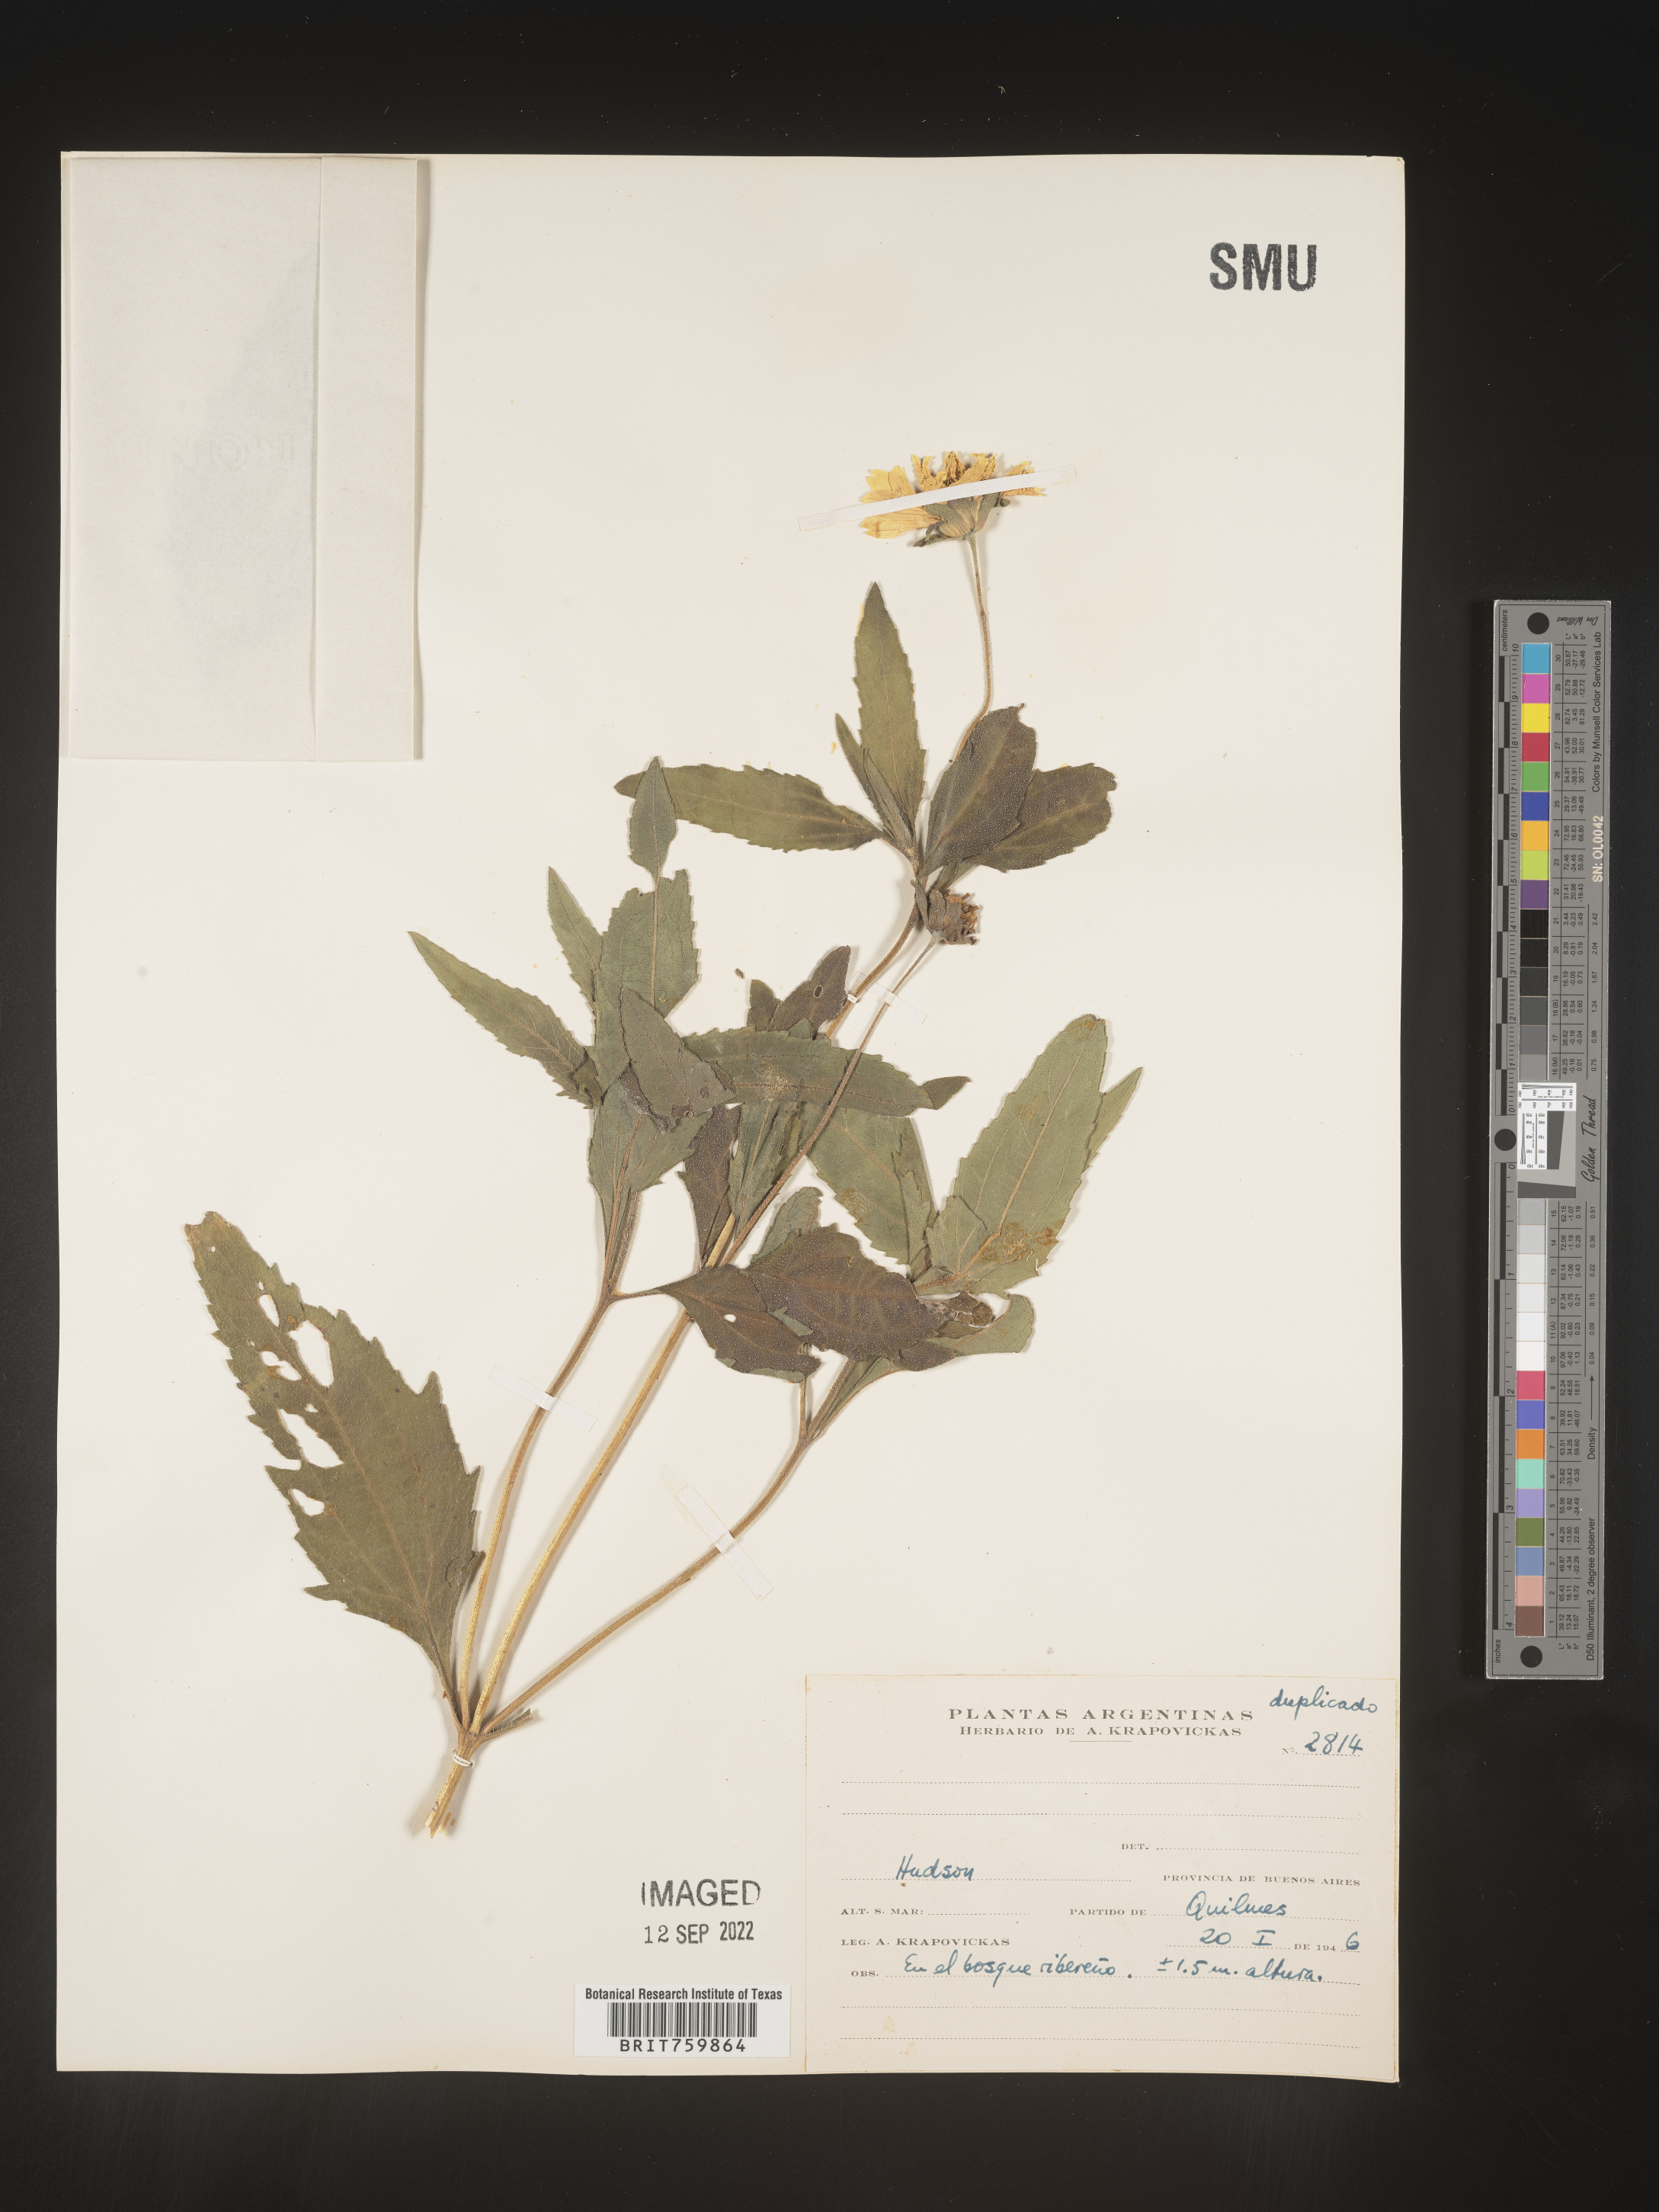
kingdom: Plantae
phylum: Tracheophyta
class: Magnoliopsida
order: Asterales
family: Asteraceae
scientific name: Asteraceae
